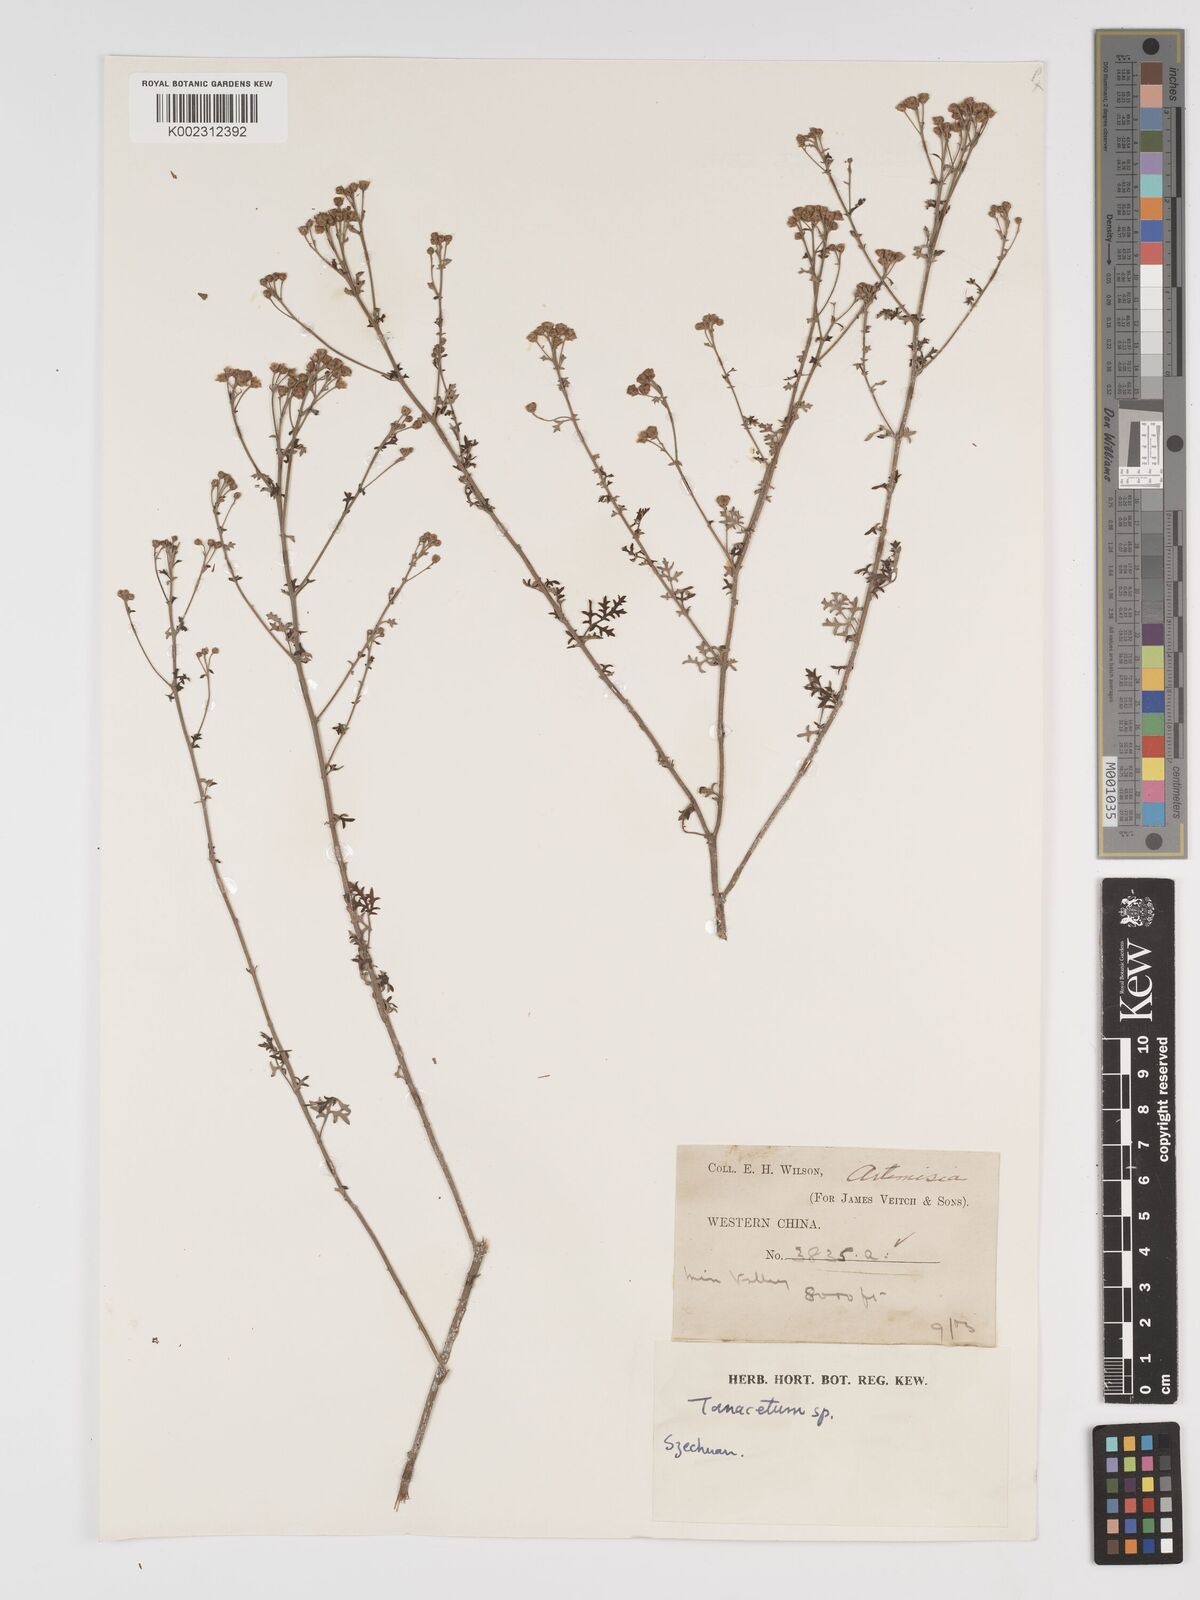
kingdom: Plantae
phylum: Tracheophyta
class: Magnoliopsida
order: Asterales
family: Asteraceae
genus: Tanacetum
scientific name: Tanacetum
